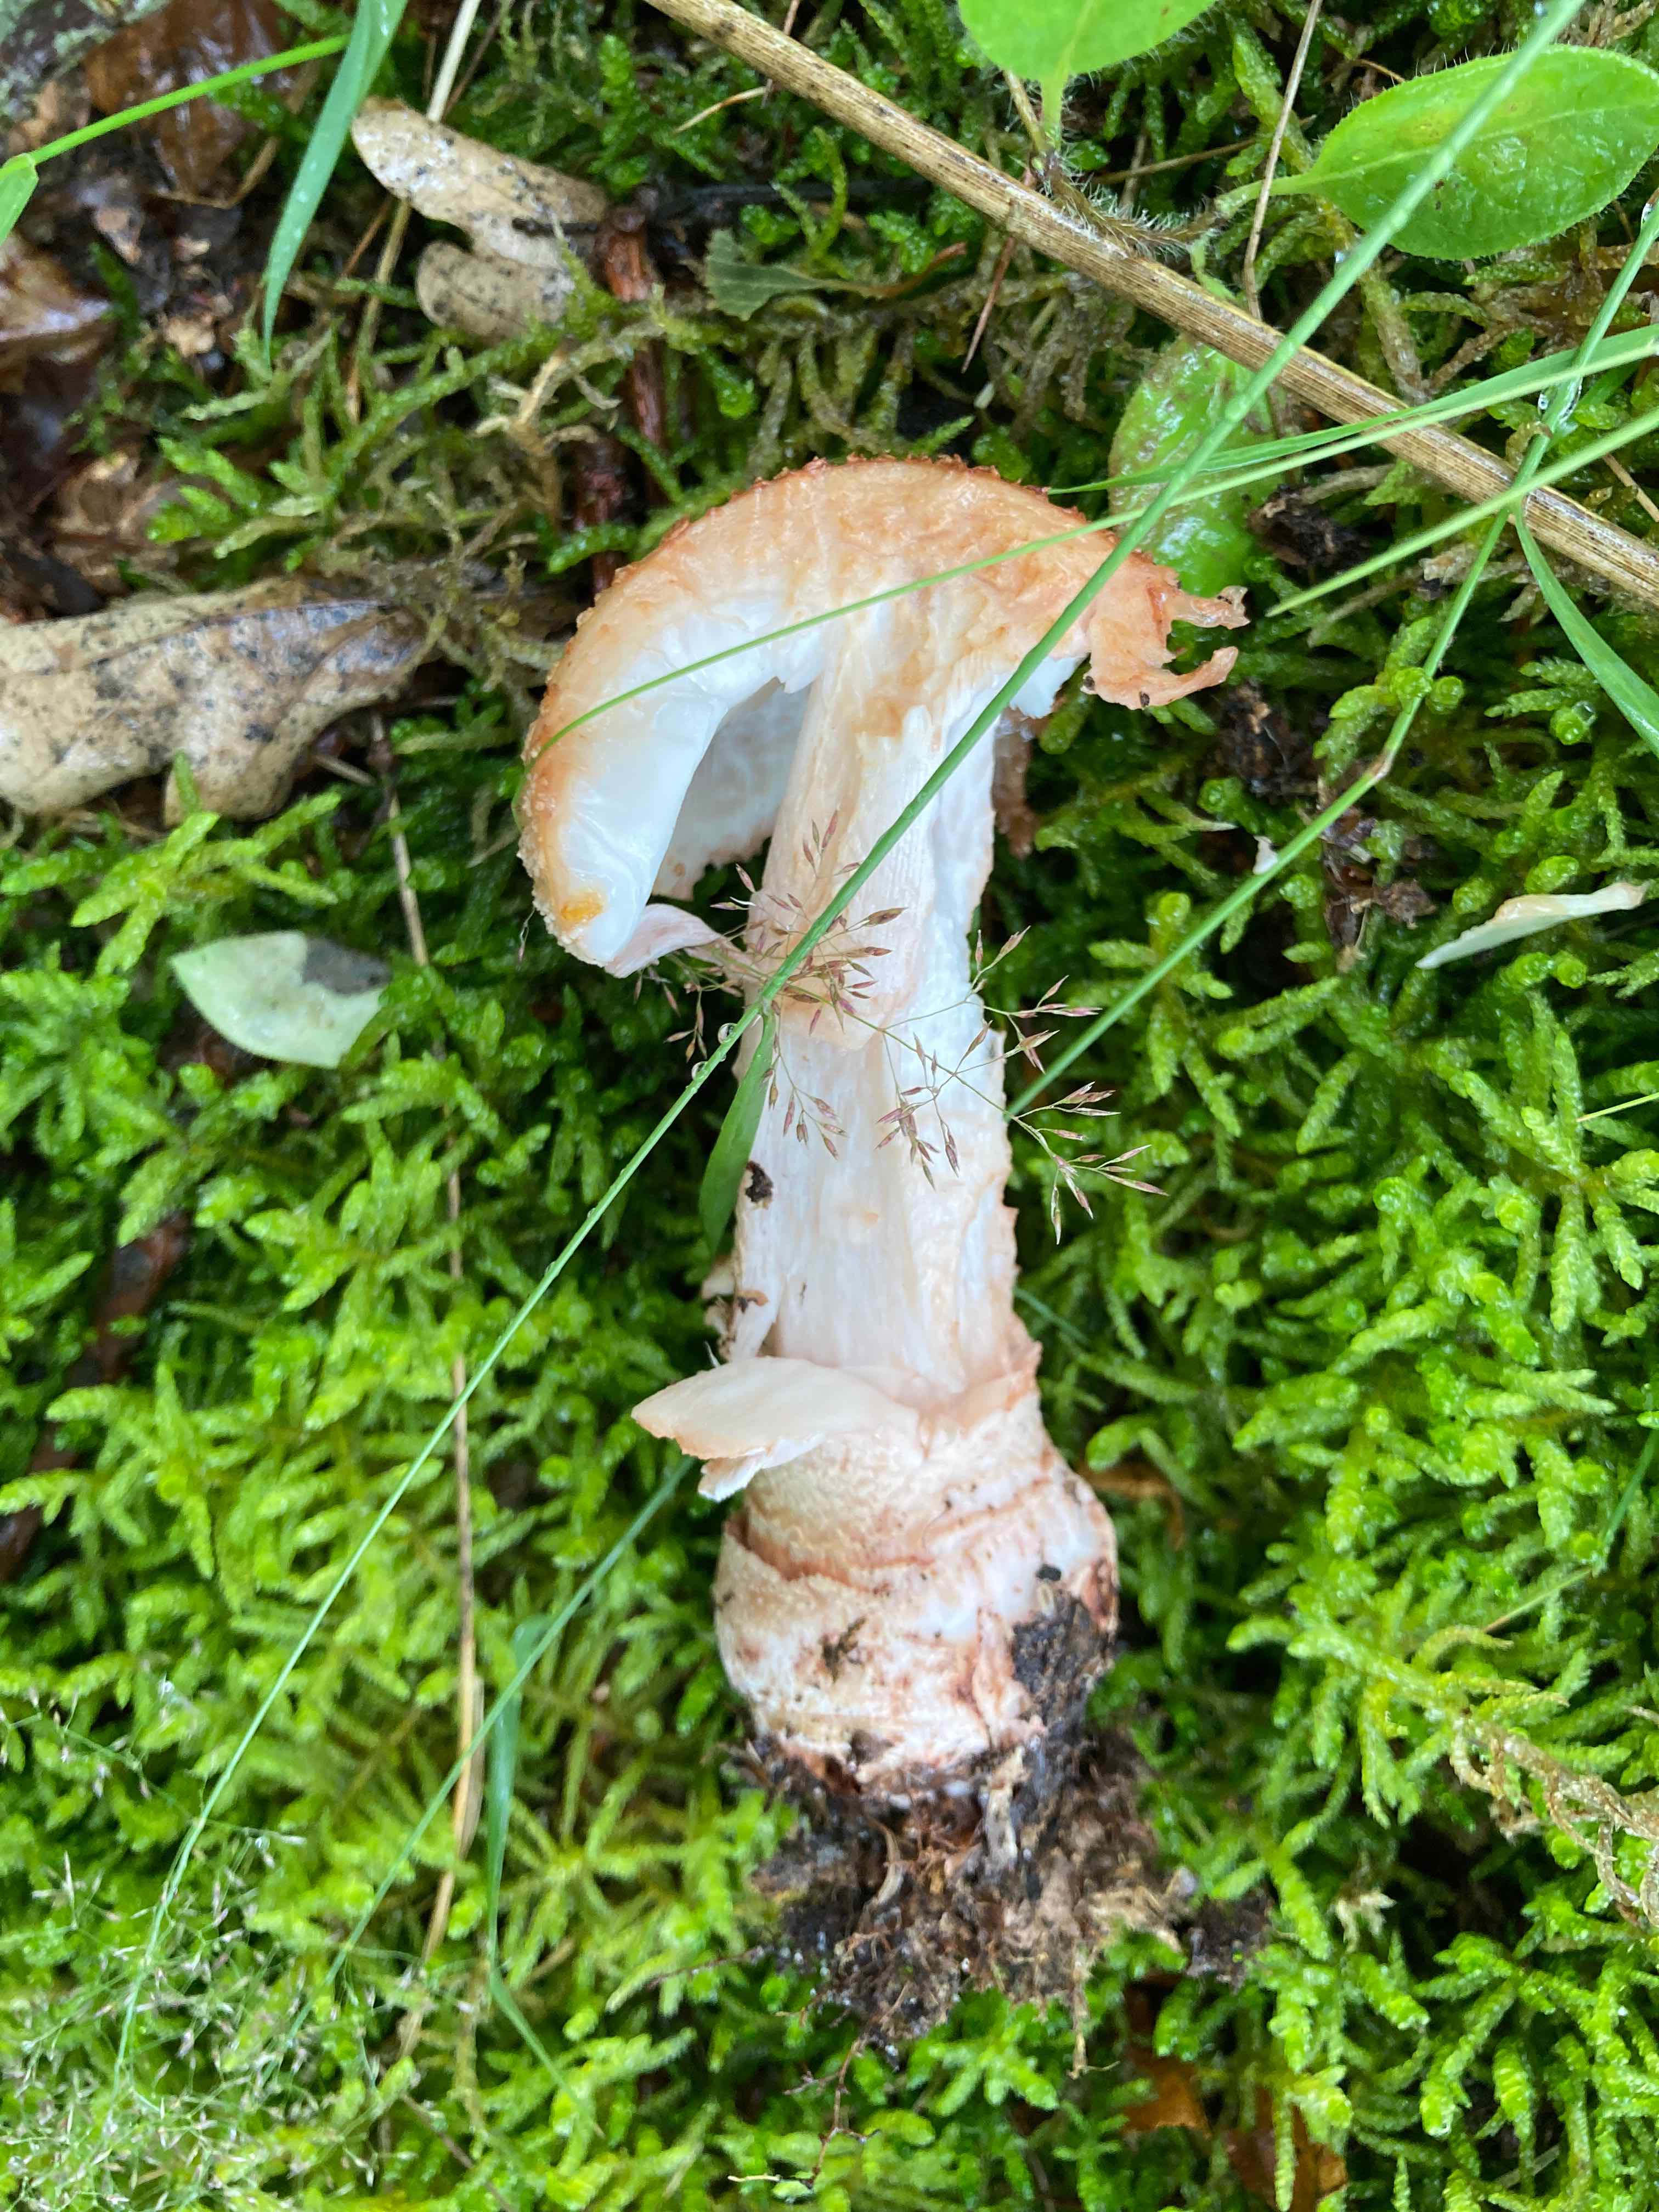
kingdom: Fungi
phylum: Basidiomycota
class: Agaricomycetes
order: Agaricales
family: Amanitaceae
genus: Amanita
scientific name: Amanita rubescens
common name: rødmende fluesvamp
